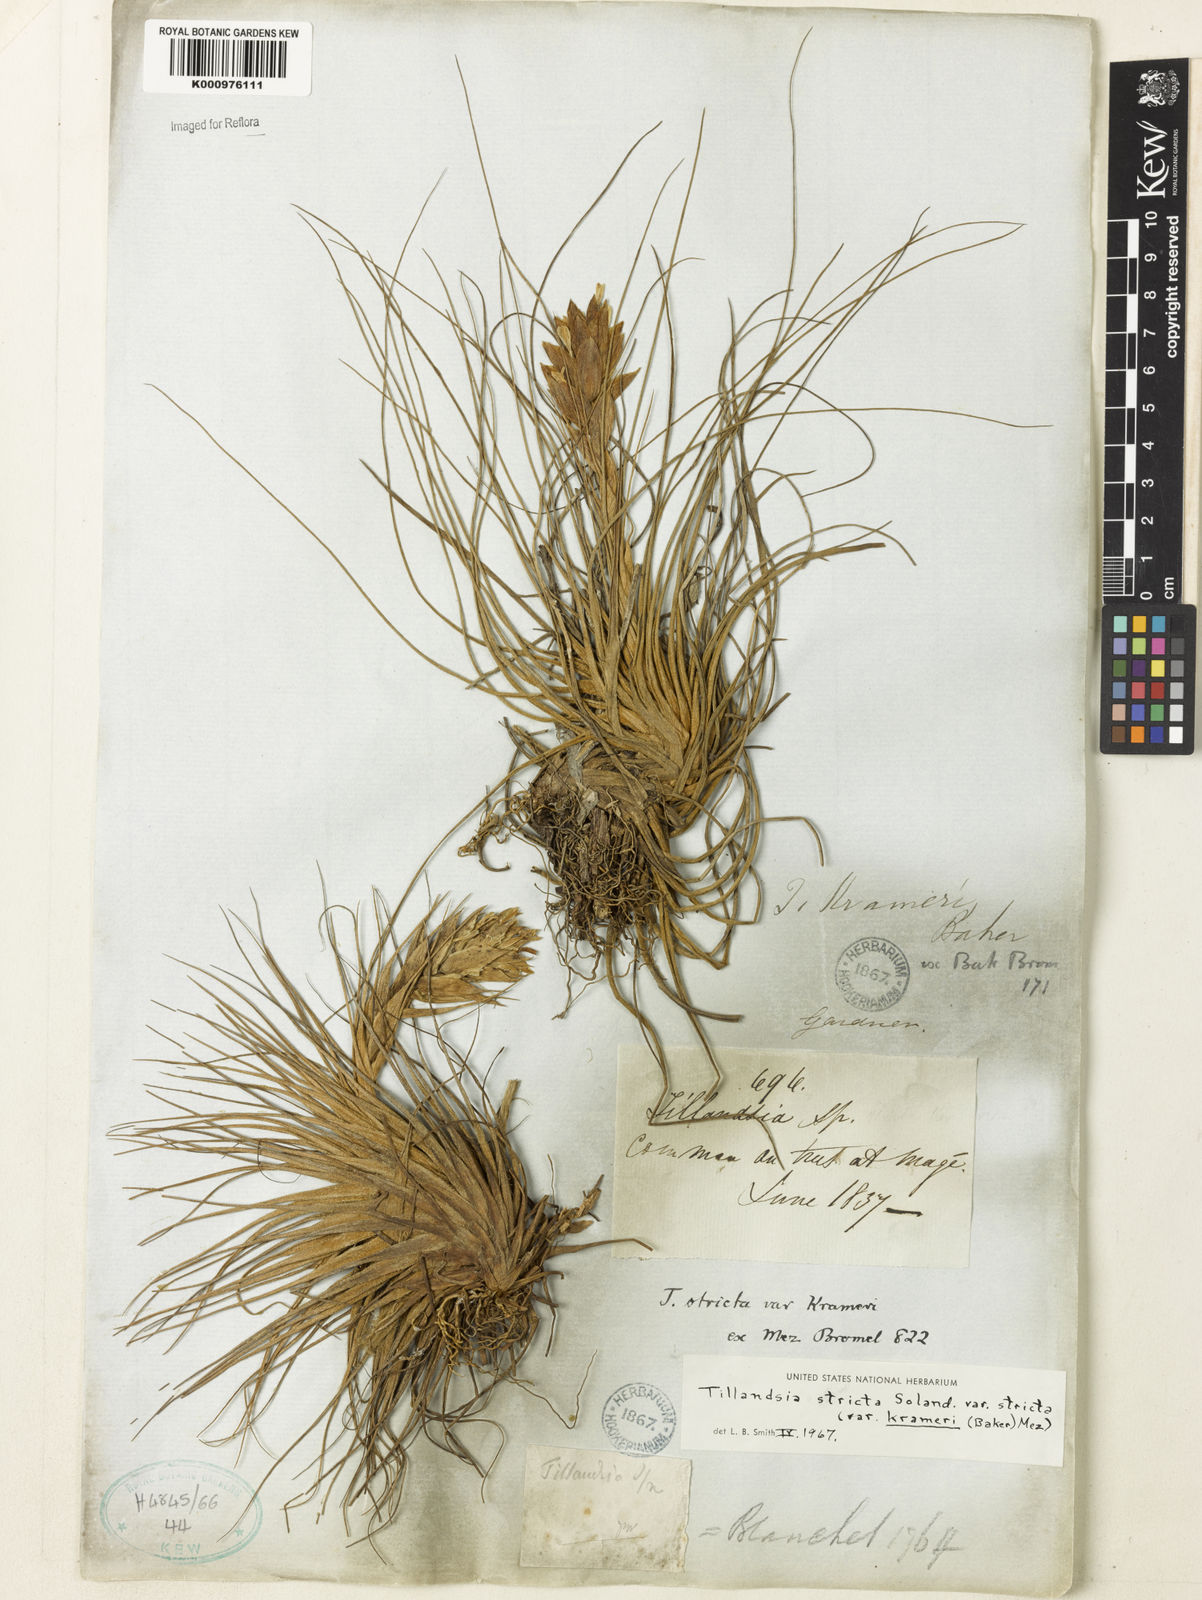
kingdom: Plantae
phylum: Tracheophyta
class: Liliopsida
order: Poales
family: Bromeliaceae
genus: Tillandsia
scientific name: Tillandsia stricta
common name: Airplant
